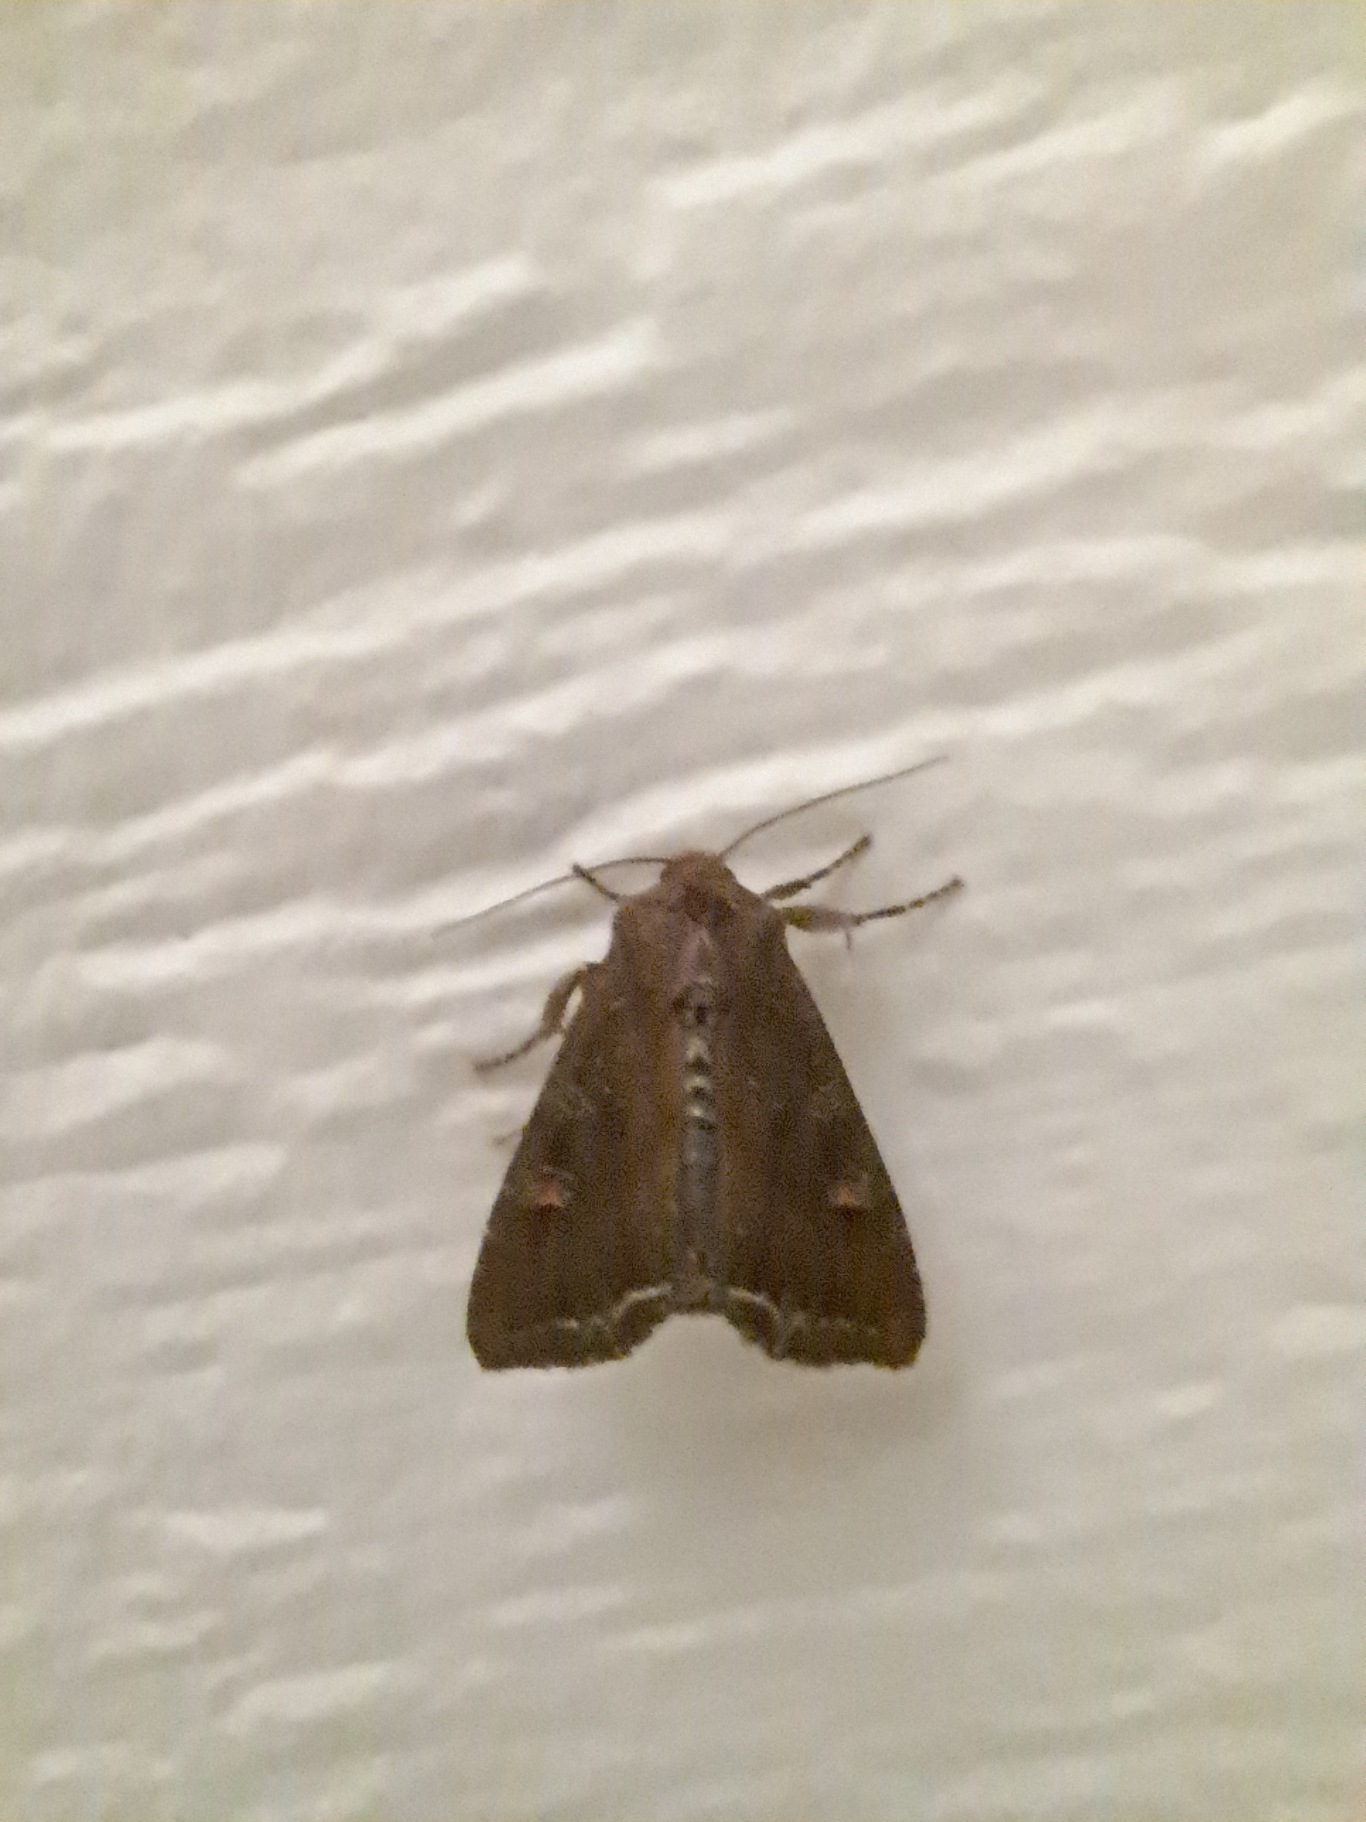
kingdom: Animalia
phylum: Arthropoda
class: Insecta
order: Lepidoptera
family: Noctuidae
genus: Lacanobia
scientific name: Lacanobia oleracea
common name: Haveugle
